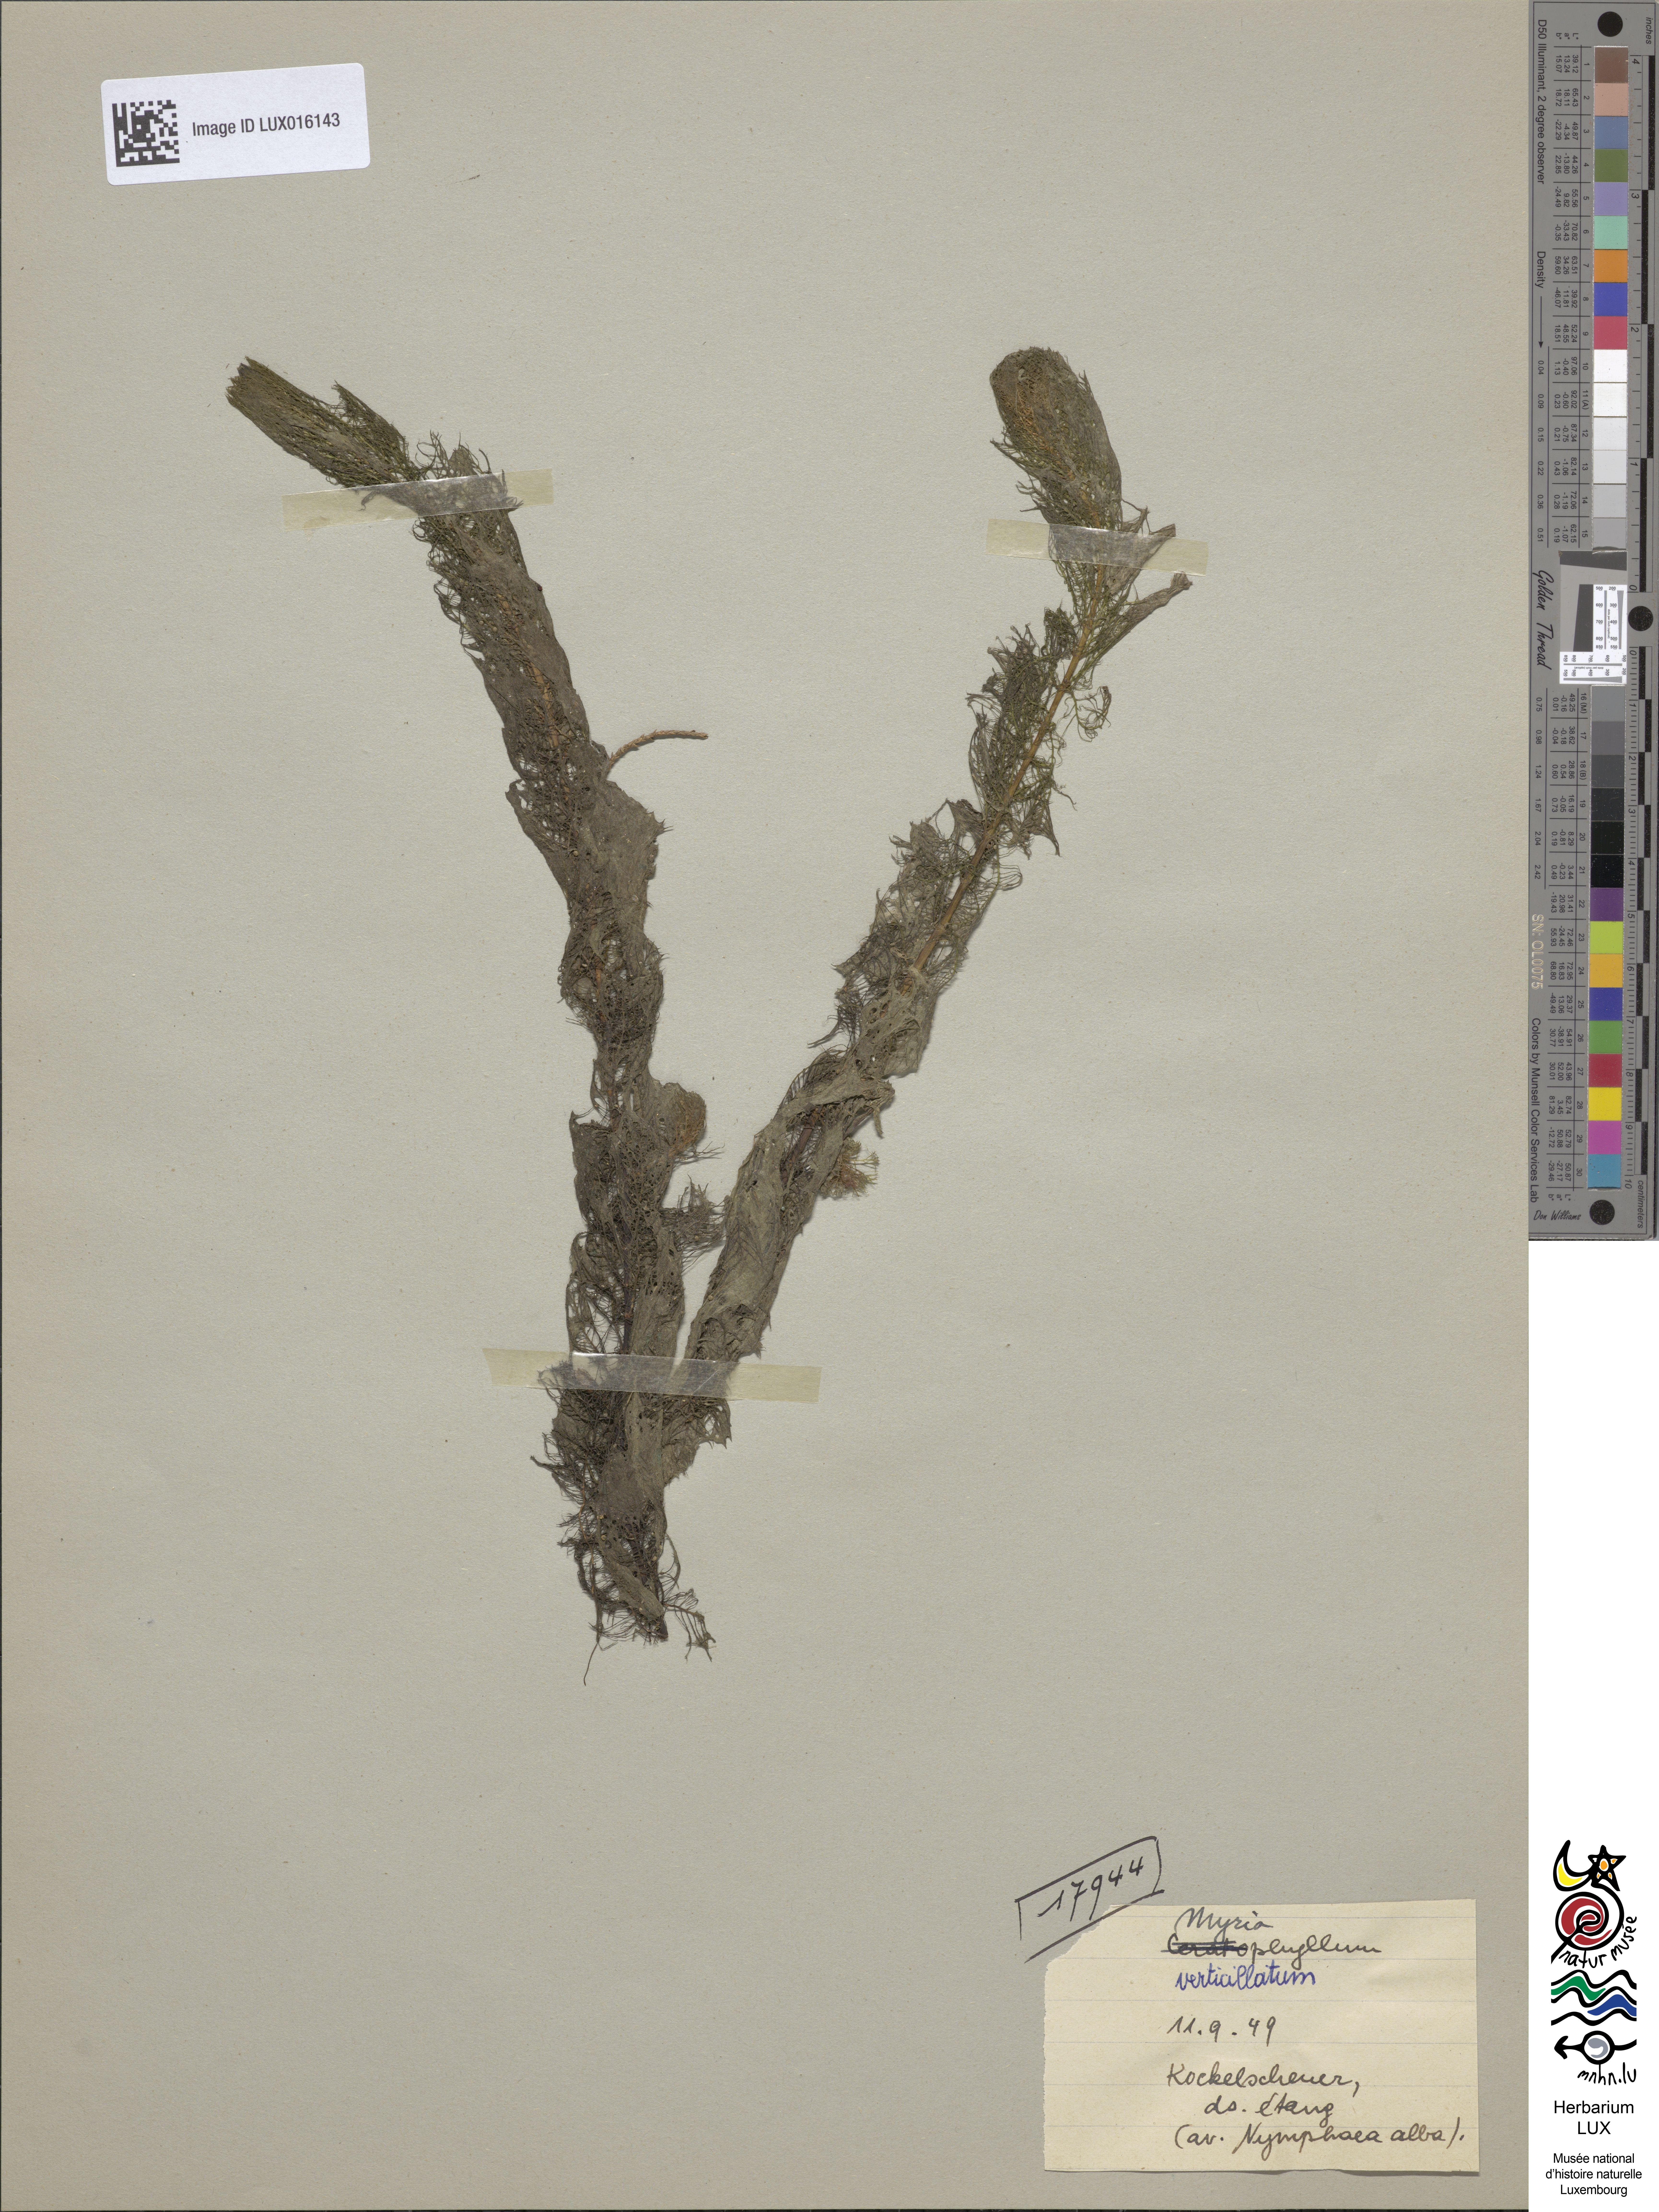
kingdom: Plantae
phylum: Tracheophyta
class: Magnoliopsida
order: Saxifragales
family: Haloragaceae
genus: Myriophyllum
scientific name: Myriophyllum verticillatum
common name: Whorled water-milfoil
